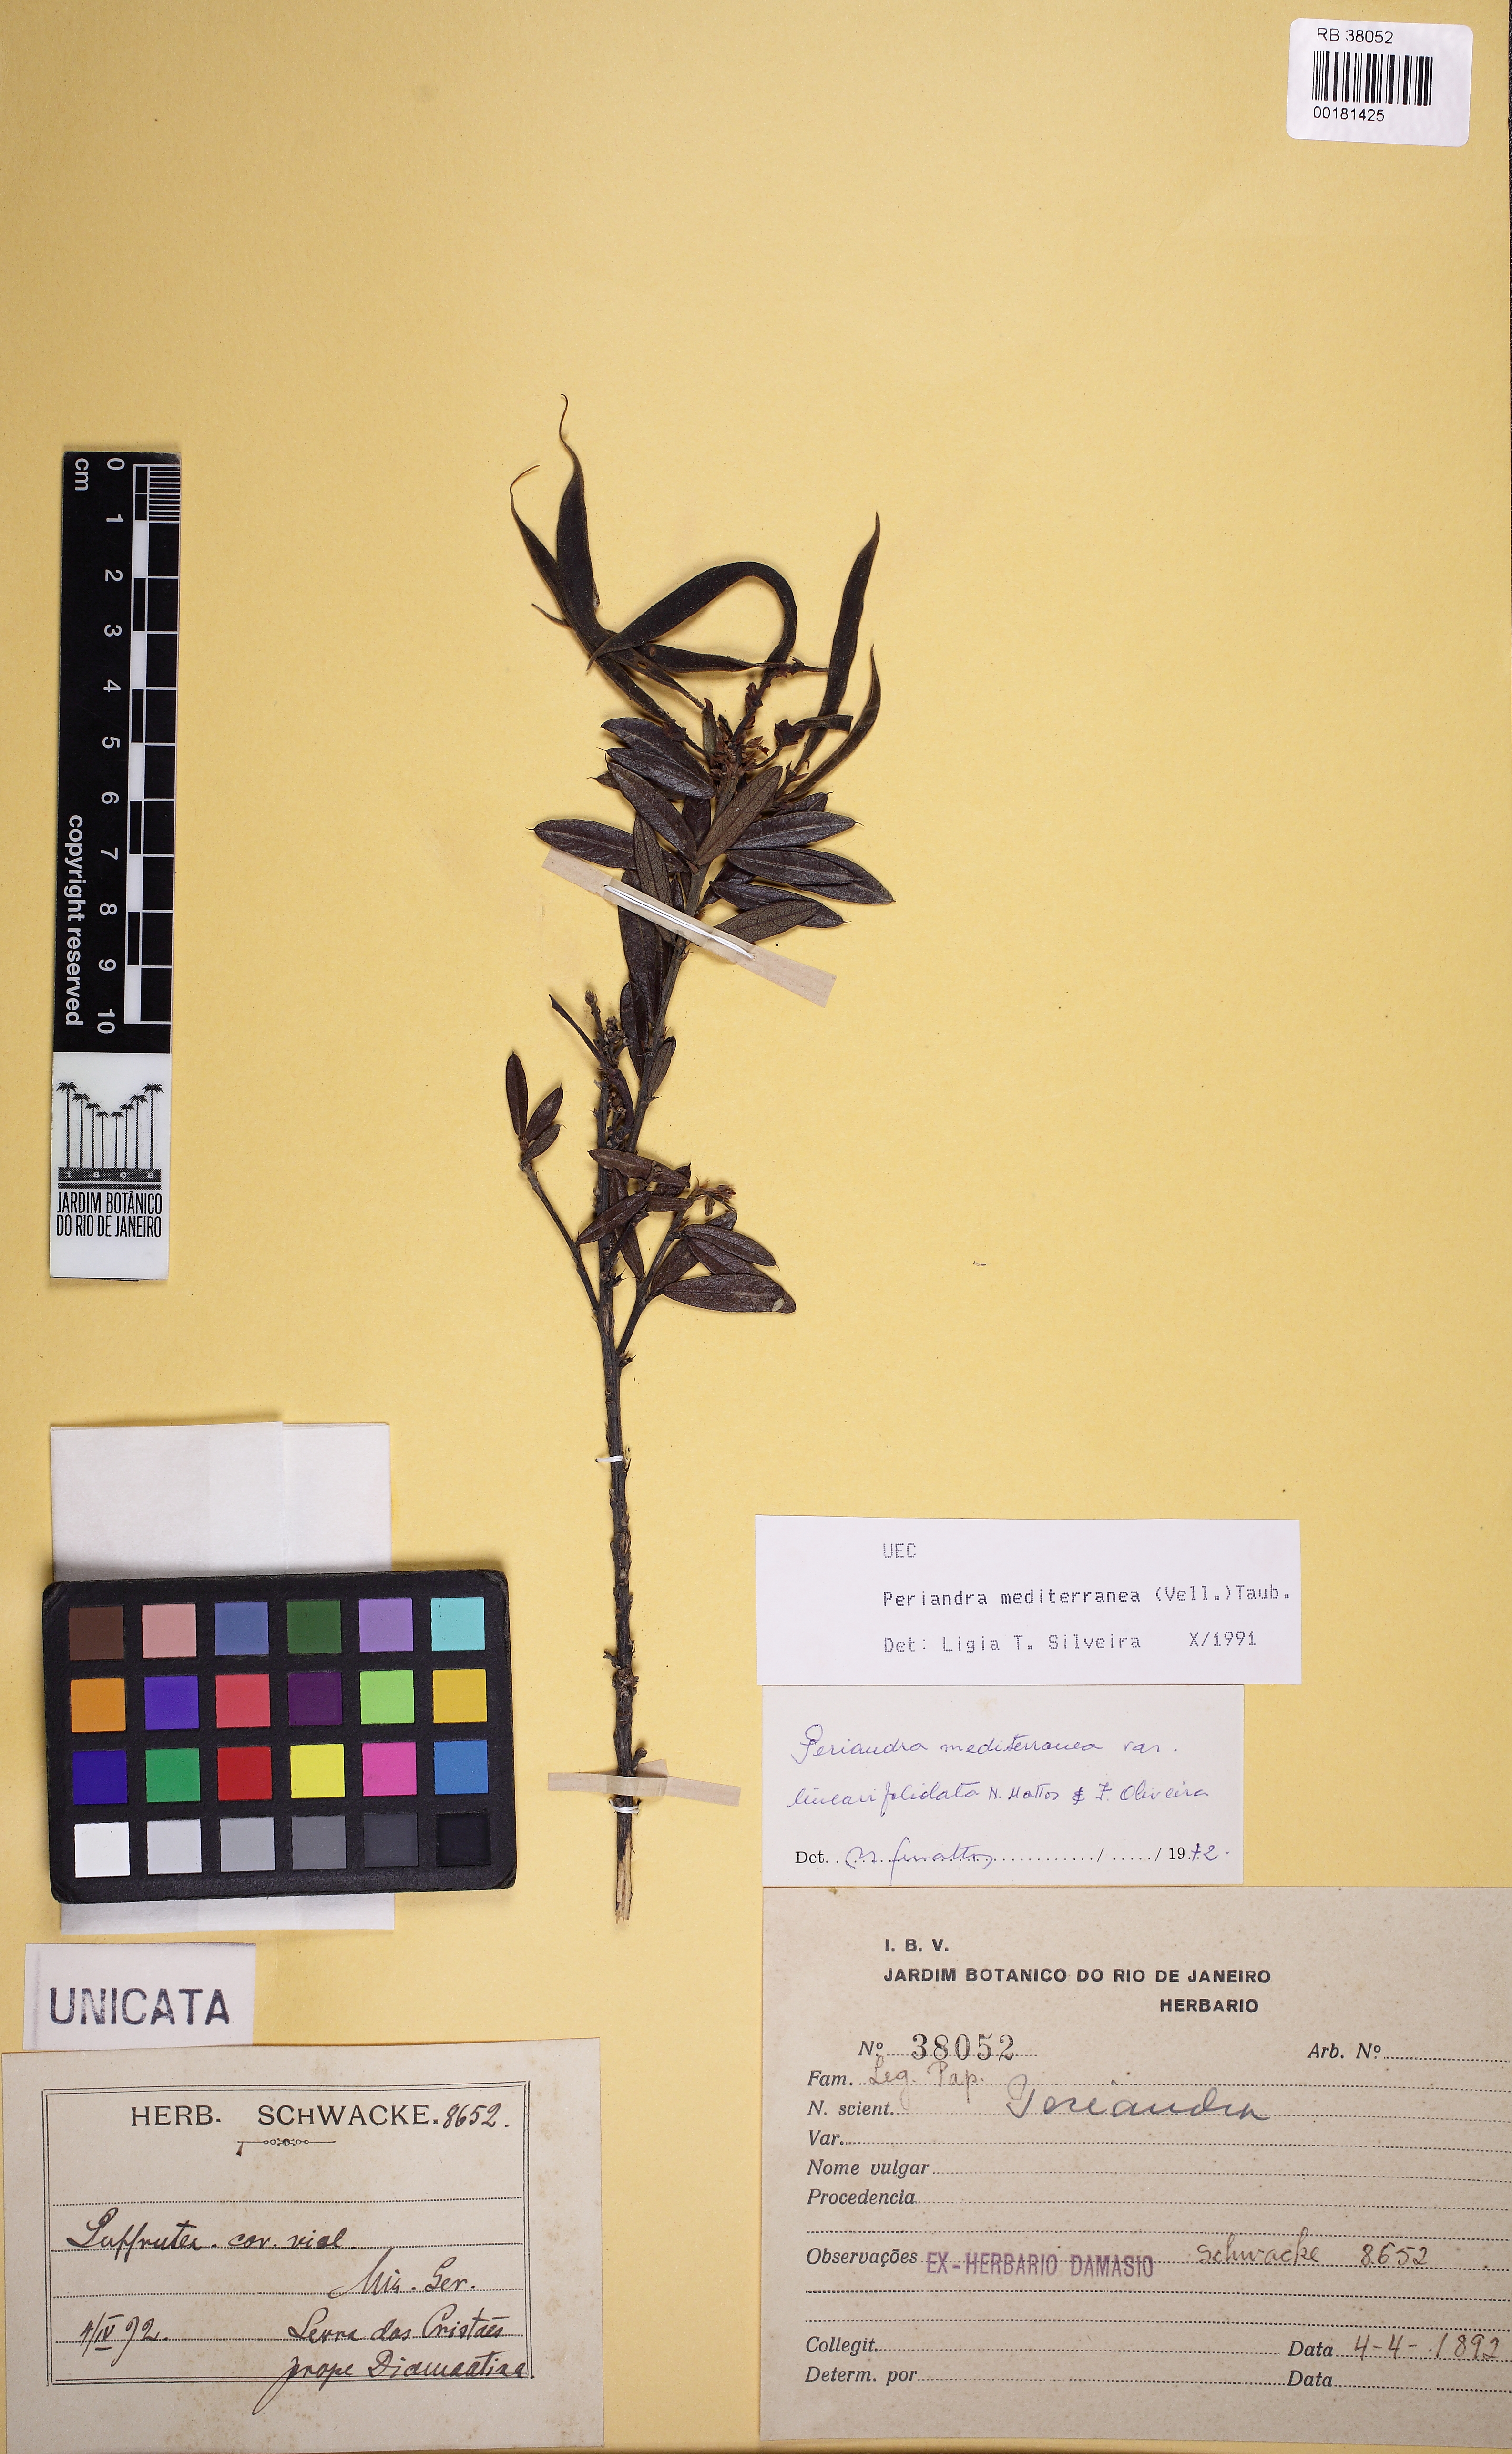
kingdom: Plantae
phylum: Tracheophyta
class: Magnoliopsida
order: Fabales
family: Fabaceae
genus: Periandra
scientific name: Periandra mediterranea
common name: Brazilian licorice
